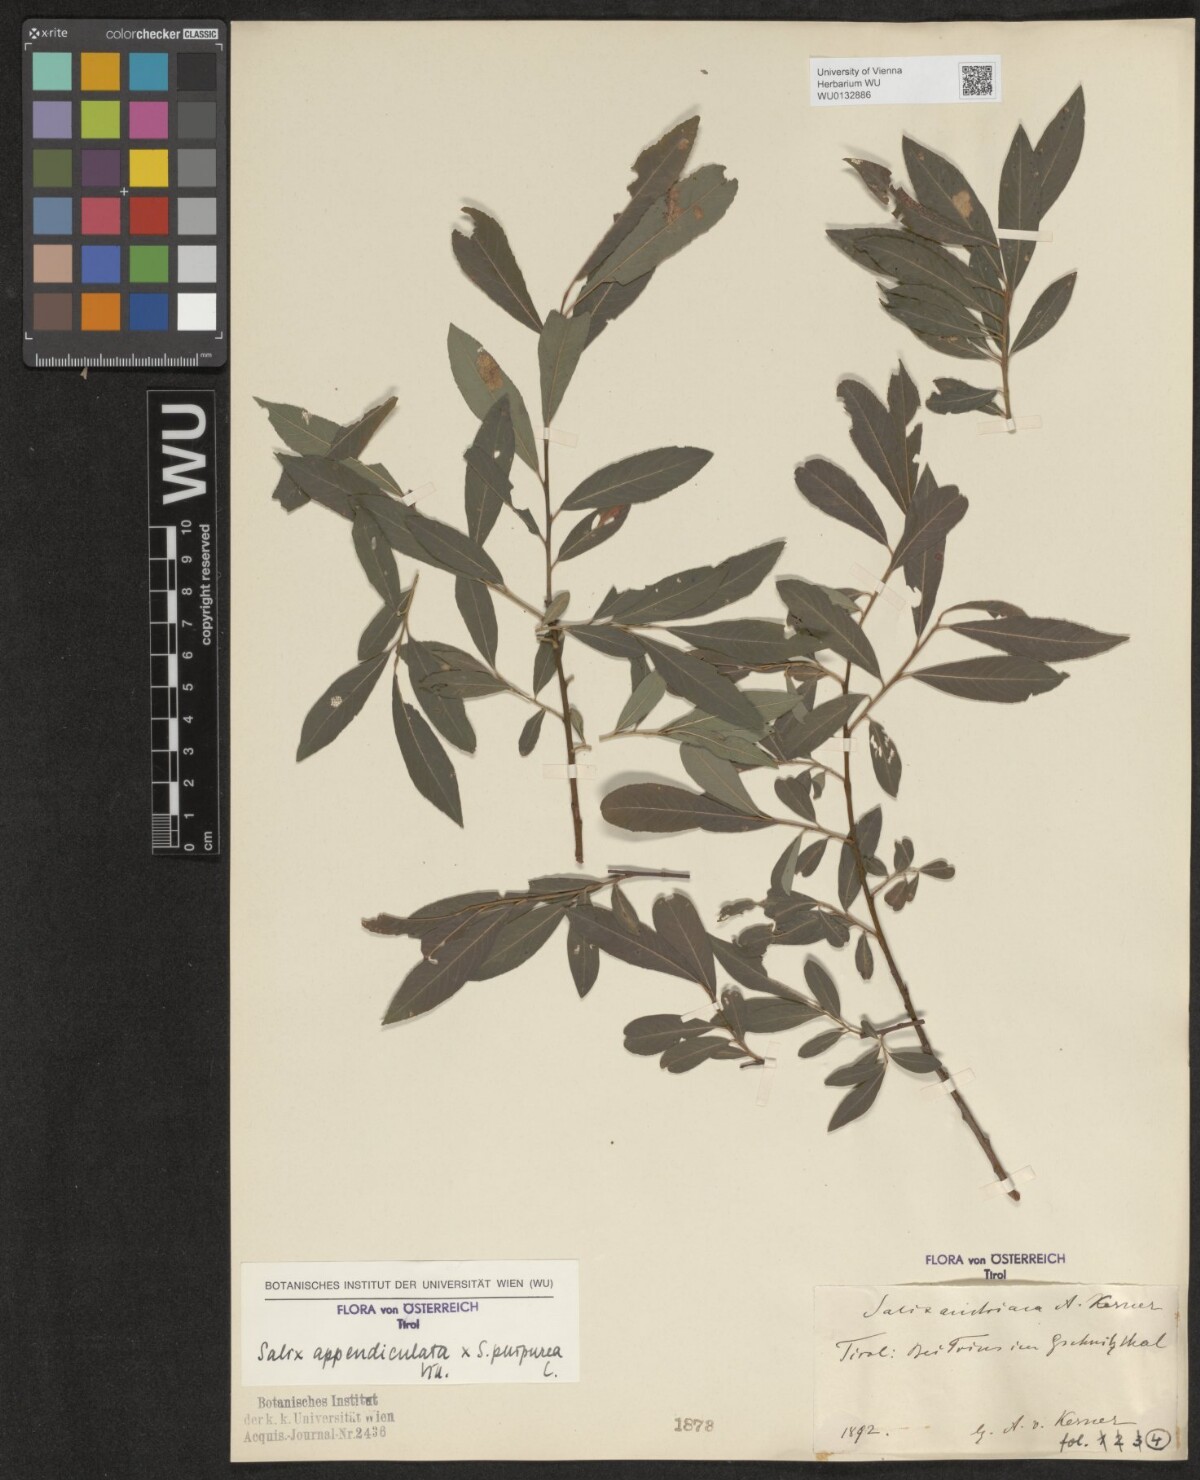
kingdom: Plantae
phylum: Tracheophyta
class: Magnoliopsida
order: Malpighiales
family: Salicaceae
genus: Salix
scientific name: Salix austriaca
